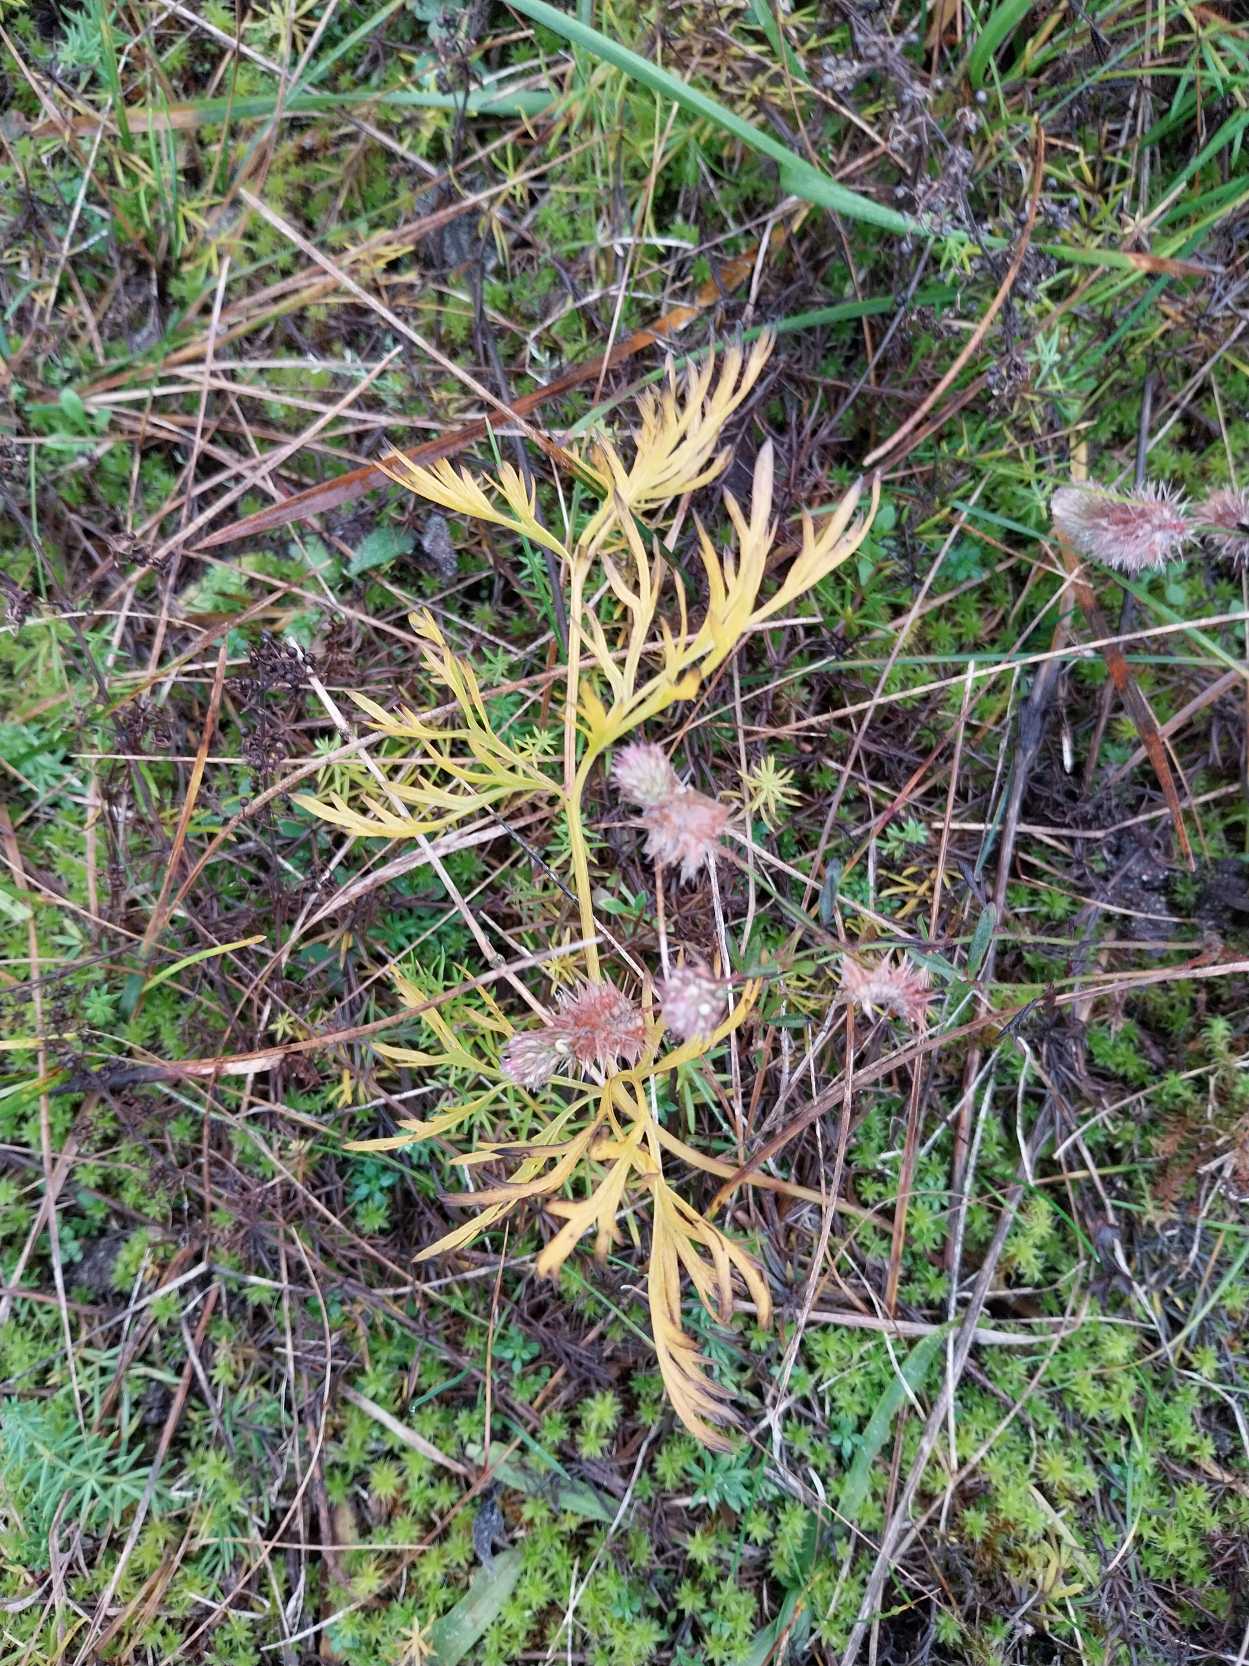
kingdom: Plantae
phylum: Tracheophyta
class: Magnoliopsida
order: Ranunculales
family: Ranunculaceae
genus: Pulsatilla
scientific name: Pulsatilla pratensis
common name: Nikkende kobjælde
